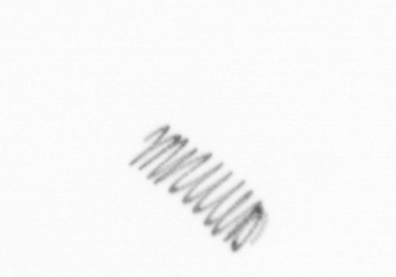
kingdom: Chromista
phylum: Ochrophyta
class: Bacillariophyceae
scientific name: Bacillariophyceae
